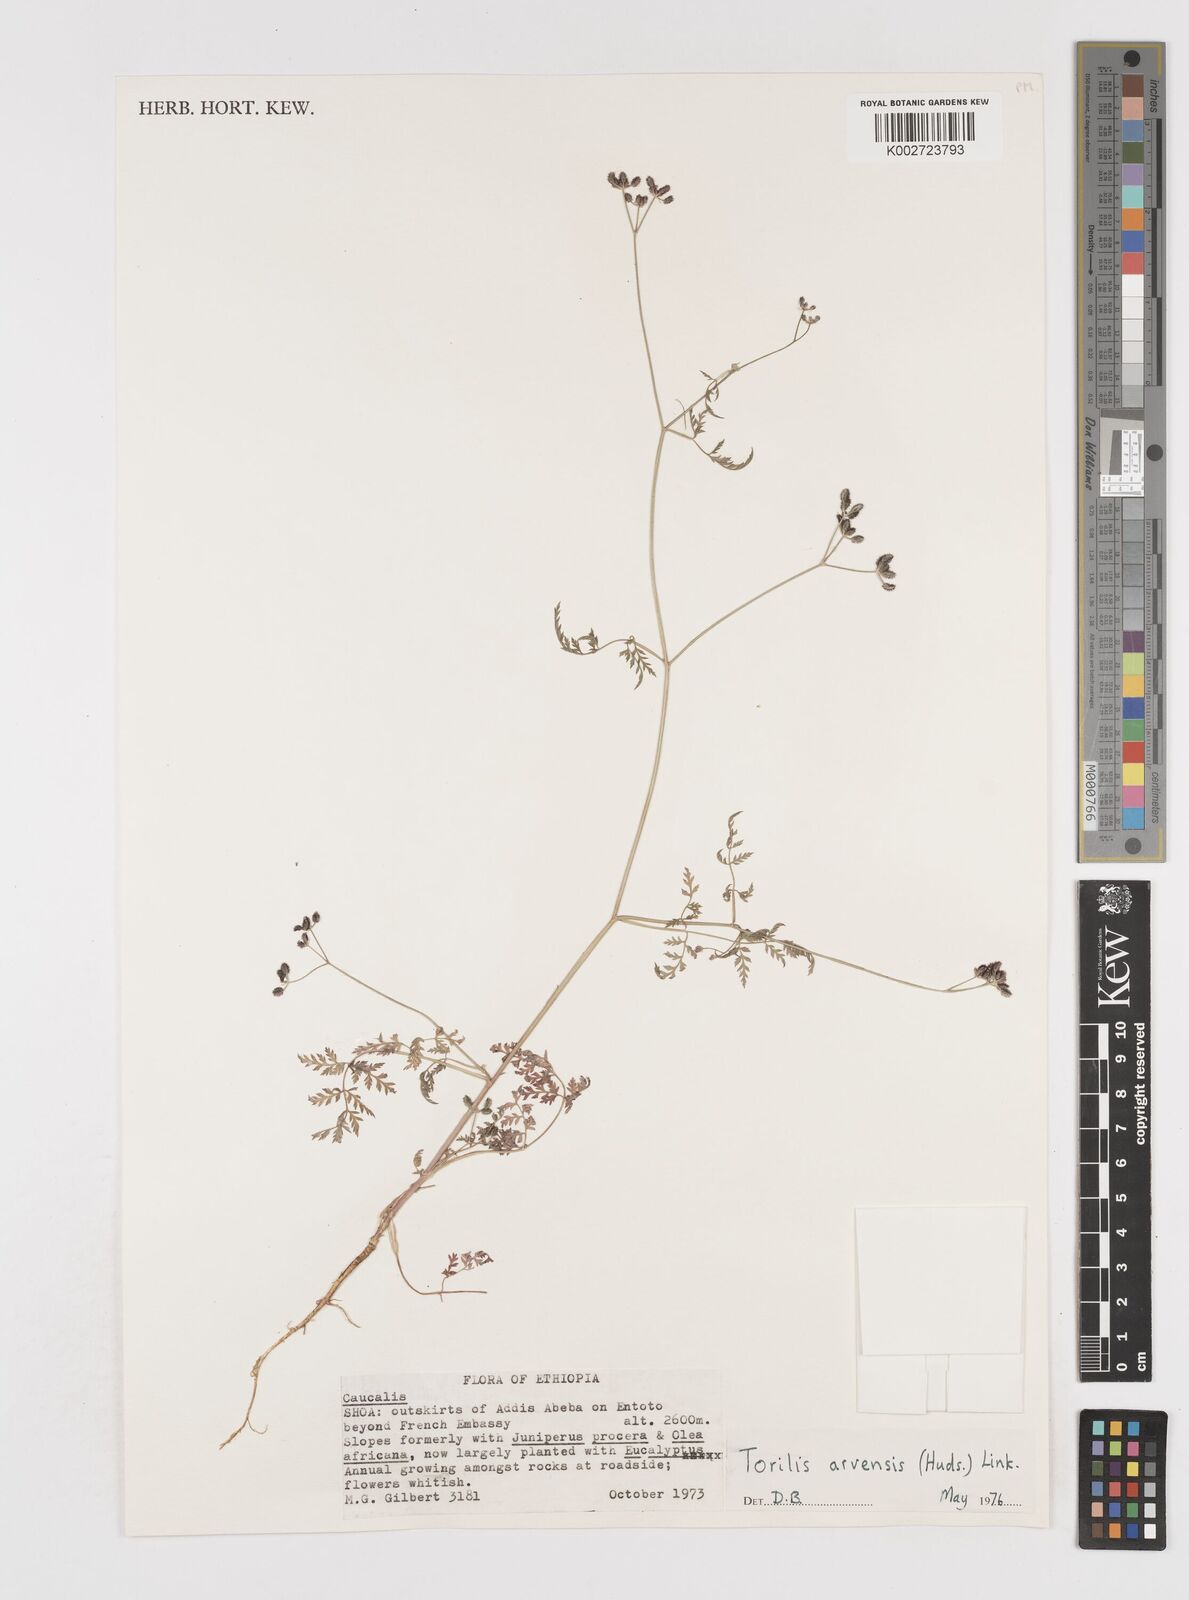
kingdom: Plantae
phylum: Tracheophyta
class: Magnoliopsida
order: Apiales
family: Apiaceae
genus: Torilis
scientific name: Torilis arvensis
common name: Spreading hedge-parsley
